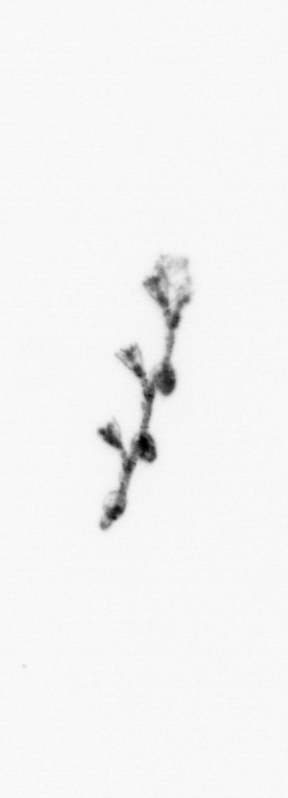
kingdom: Animalia
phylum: Cnidaria
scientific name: Cnidaria
